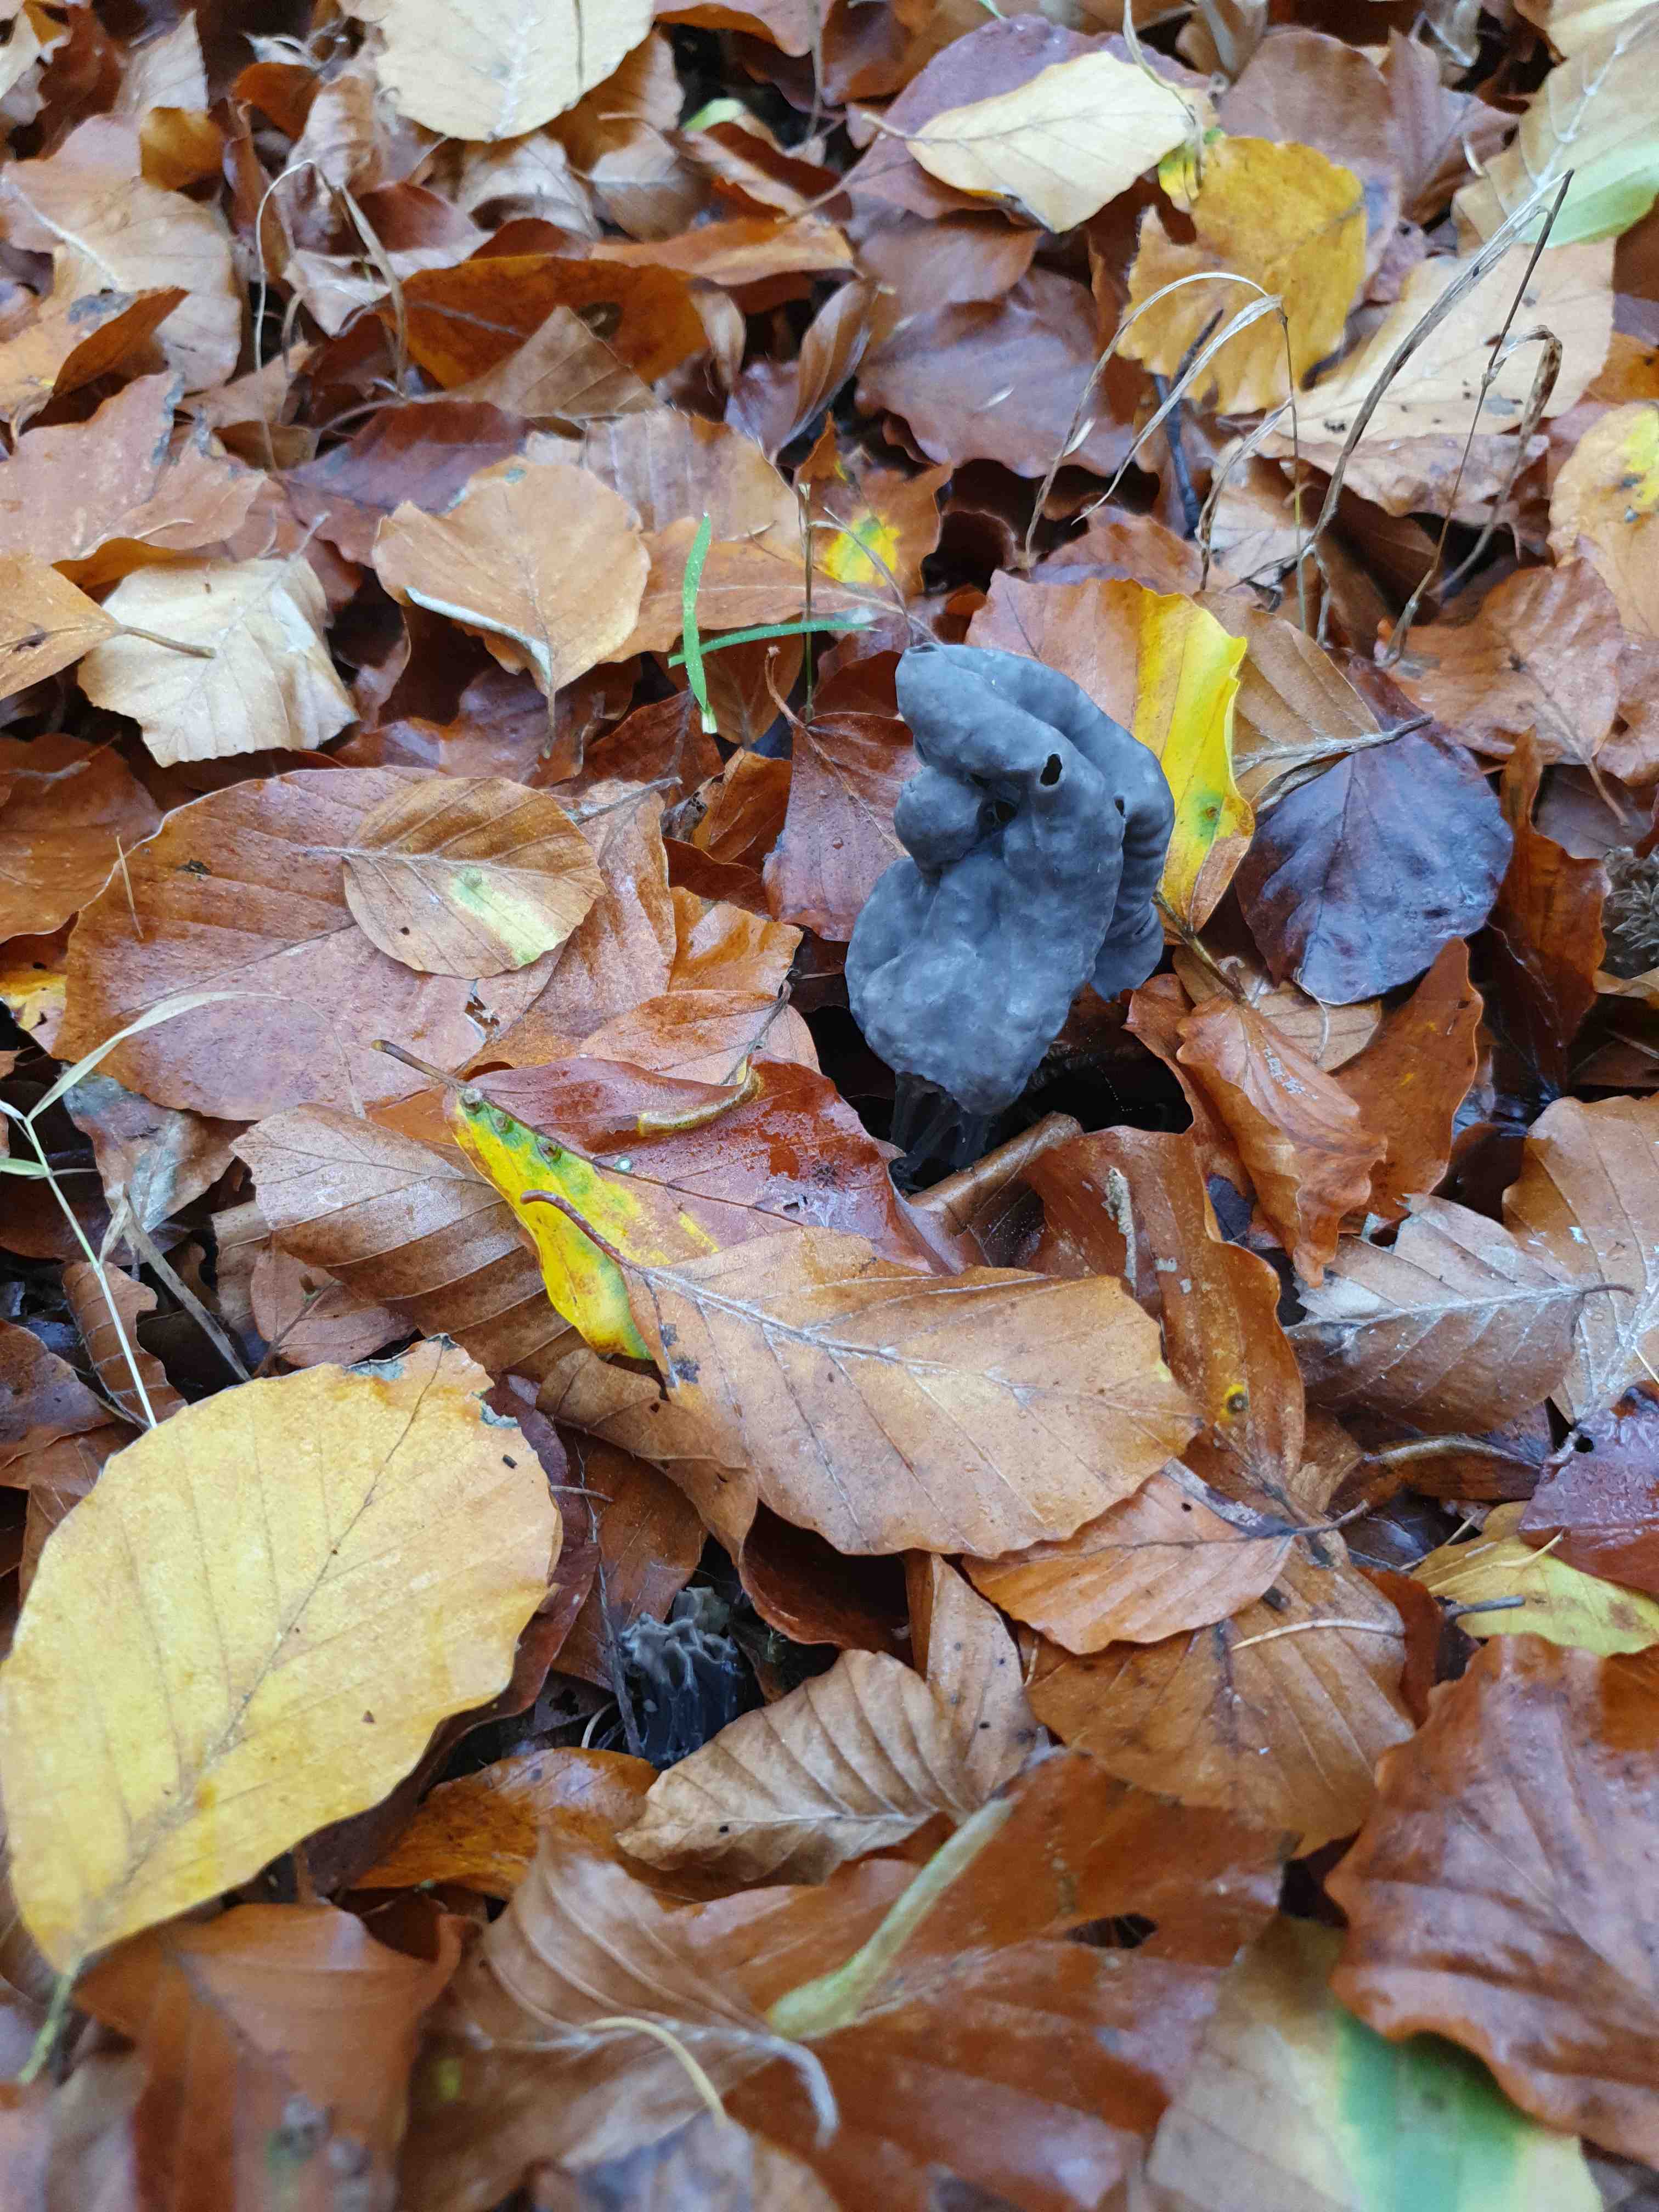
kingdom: Fungi
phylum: Ascomycota
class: Pezizomycetes
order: Pezizales
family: Helvellaceae
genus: Helvella
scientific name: Helvella lacunosa
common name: grubet foldhat
